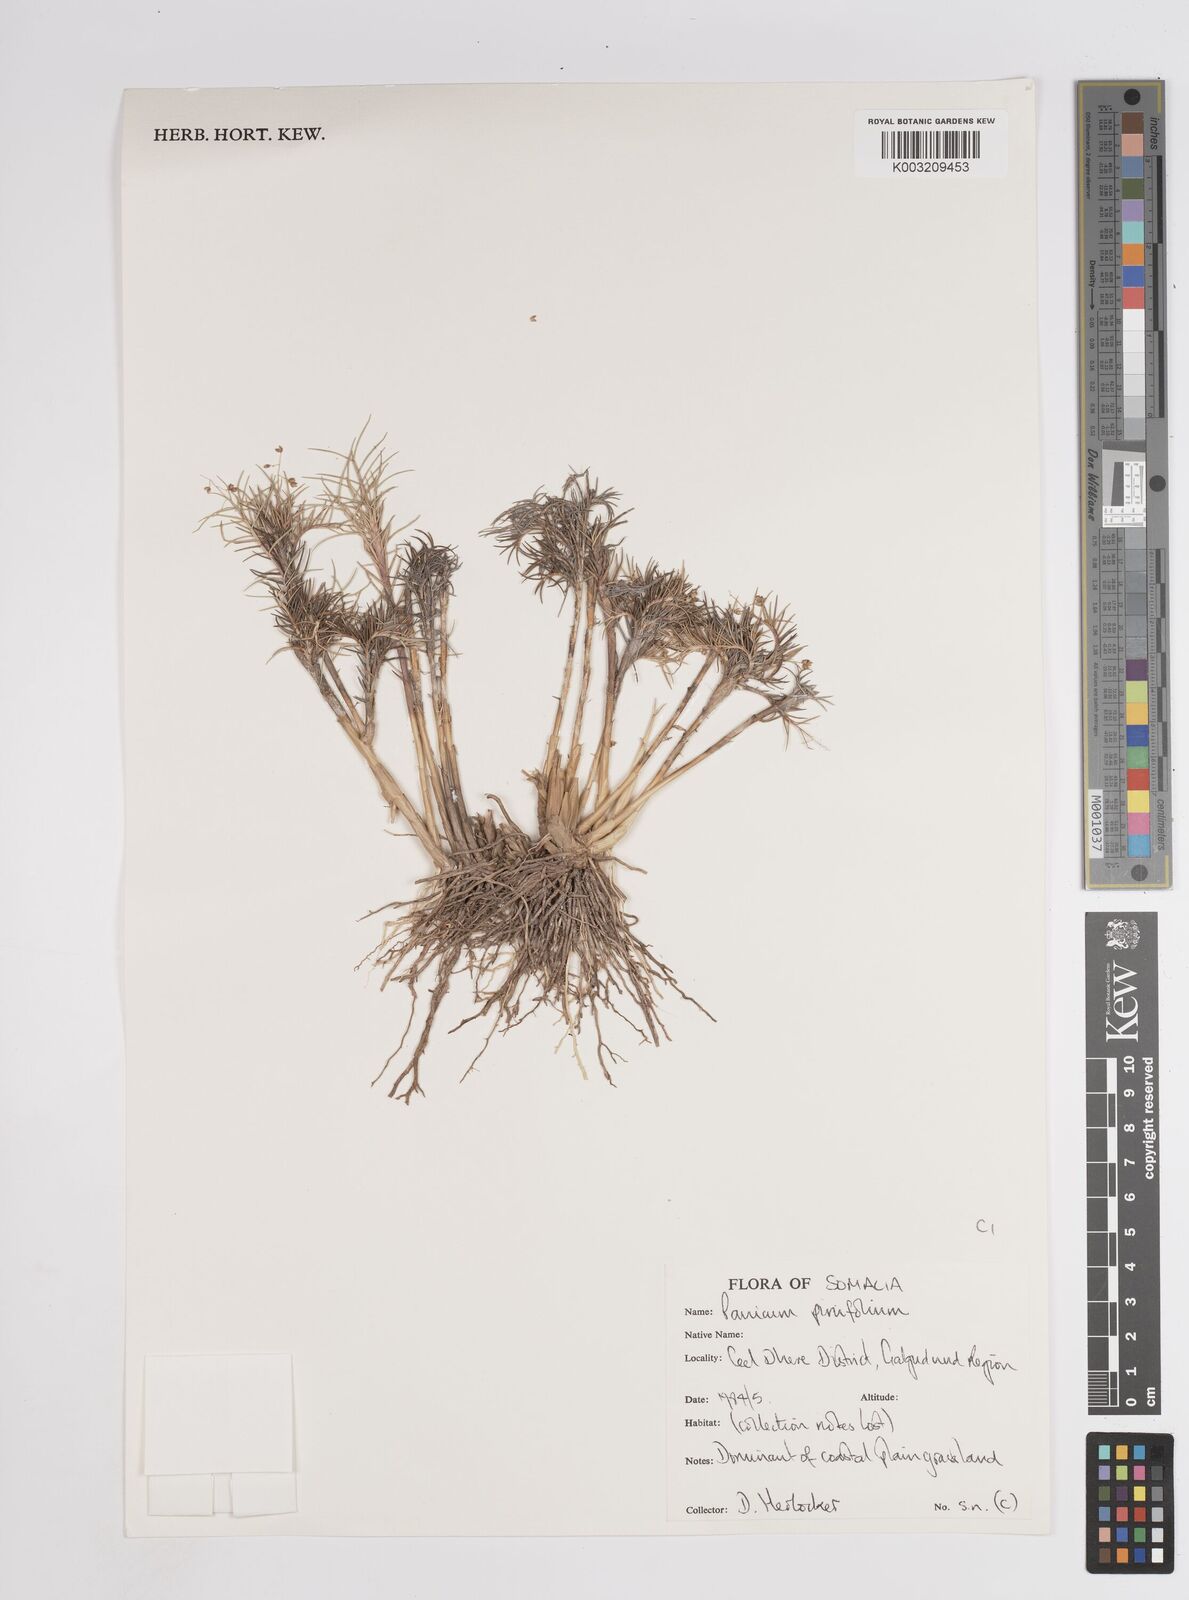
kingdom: Plantae
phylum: Tracheophyta
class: Liliopsida
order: Poales
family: Poaceae
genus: Panicum
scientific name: Panicum pinifolium
